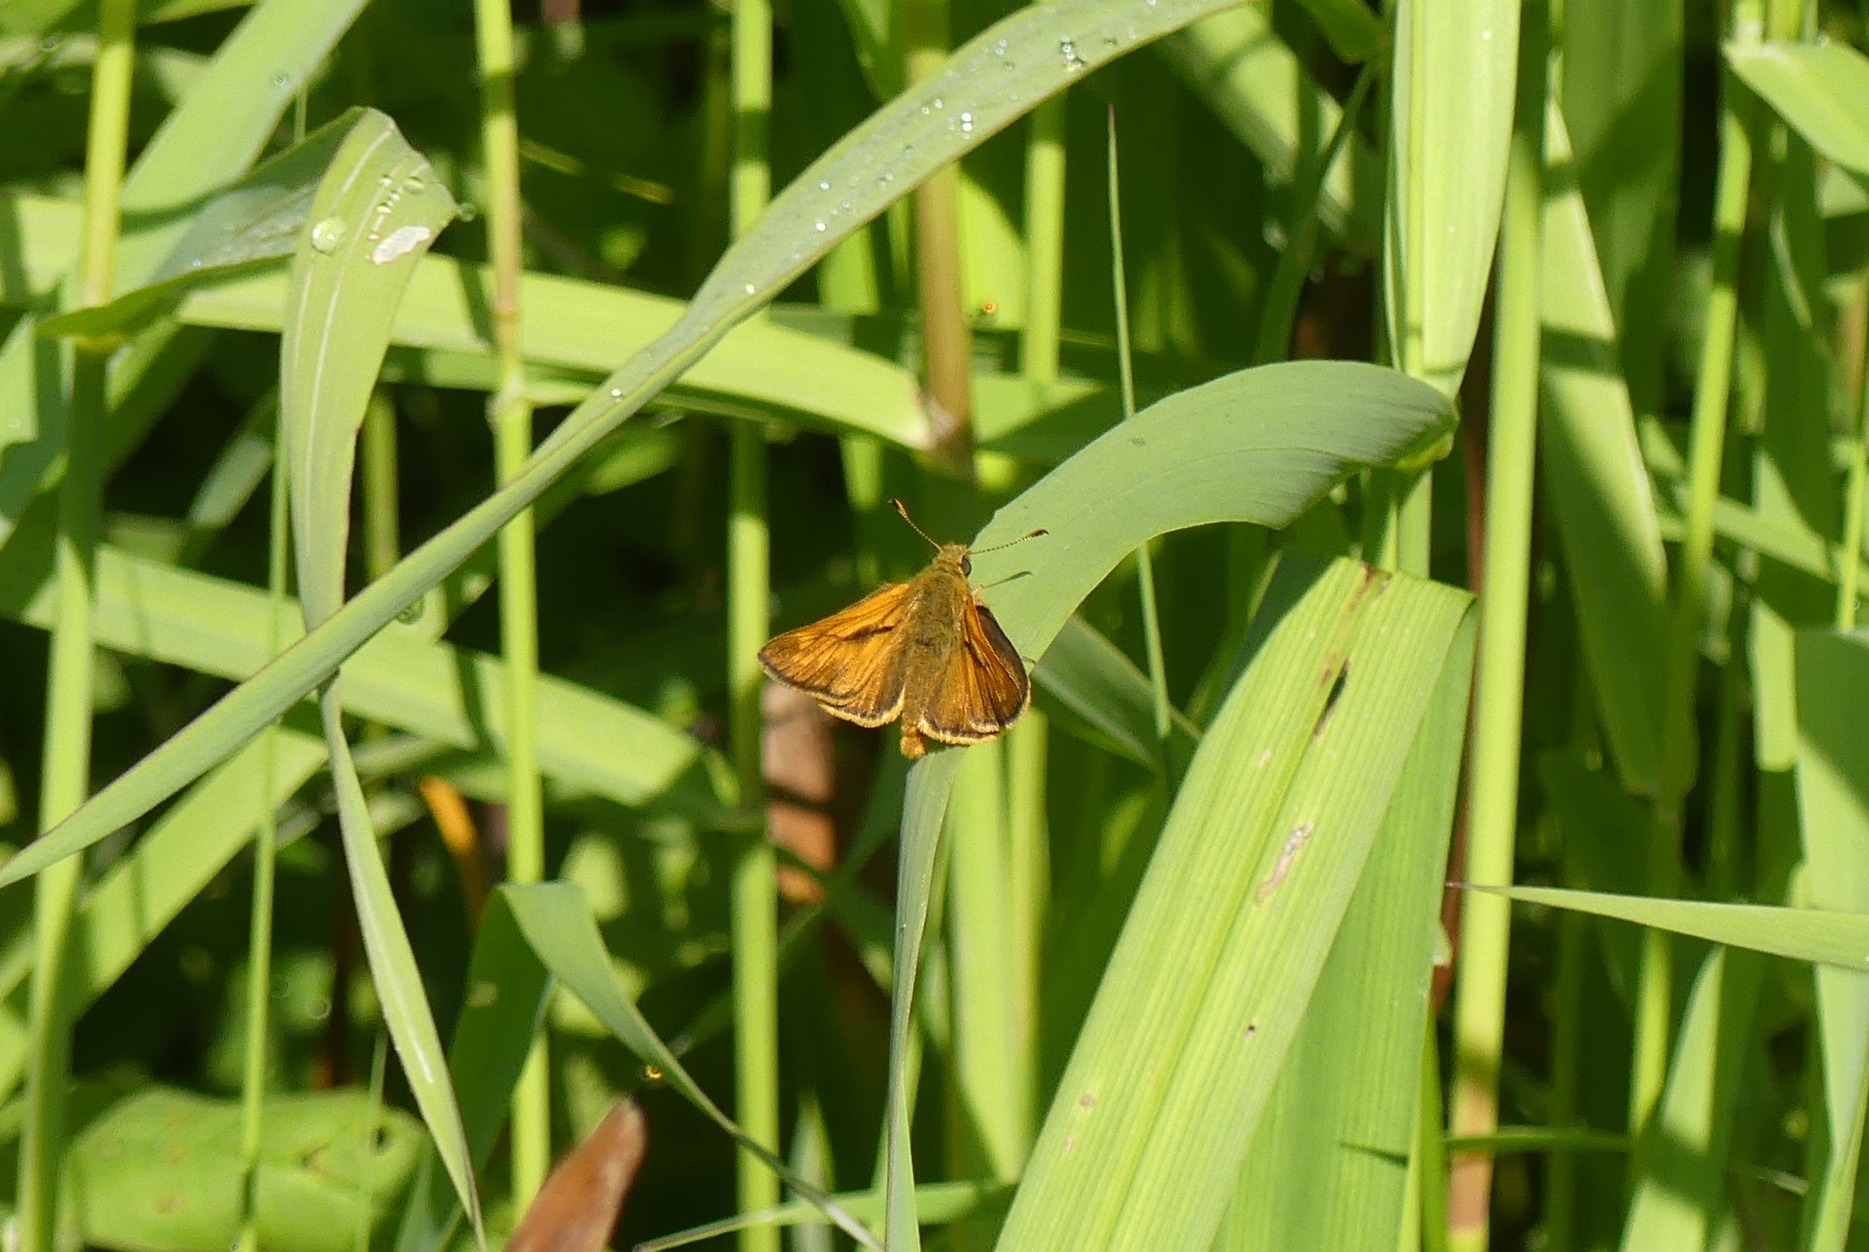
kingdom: Animalia
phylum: Arthropoda
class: Insecta
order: Lepidoptera
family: Hesperiidae
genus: Ochlodes
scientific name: Ochlodes venata
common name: Stor bredpande
